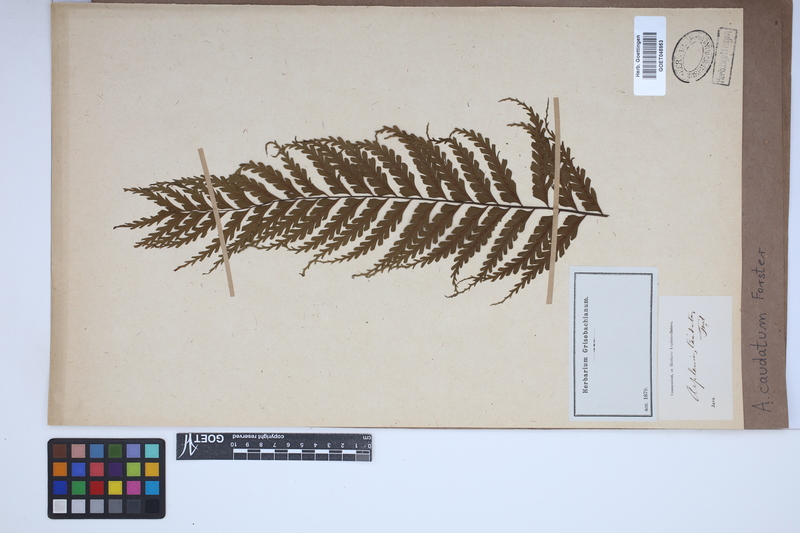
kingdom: Plantae
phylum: Tracheophyta
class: Polypodiopsida
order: Polypodiales
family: Aspleniaceae
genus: Asplenium
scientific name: Asplenium caudatum
